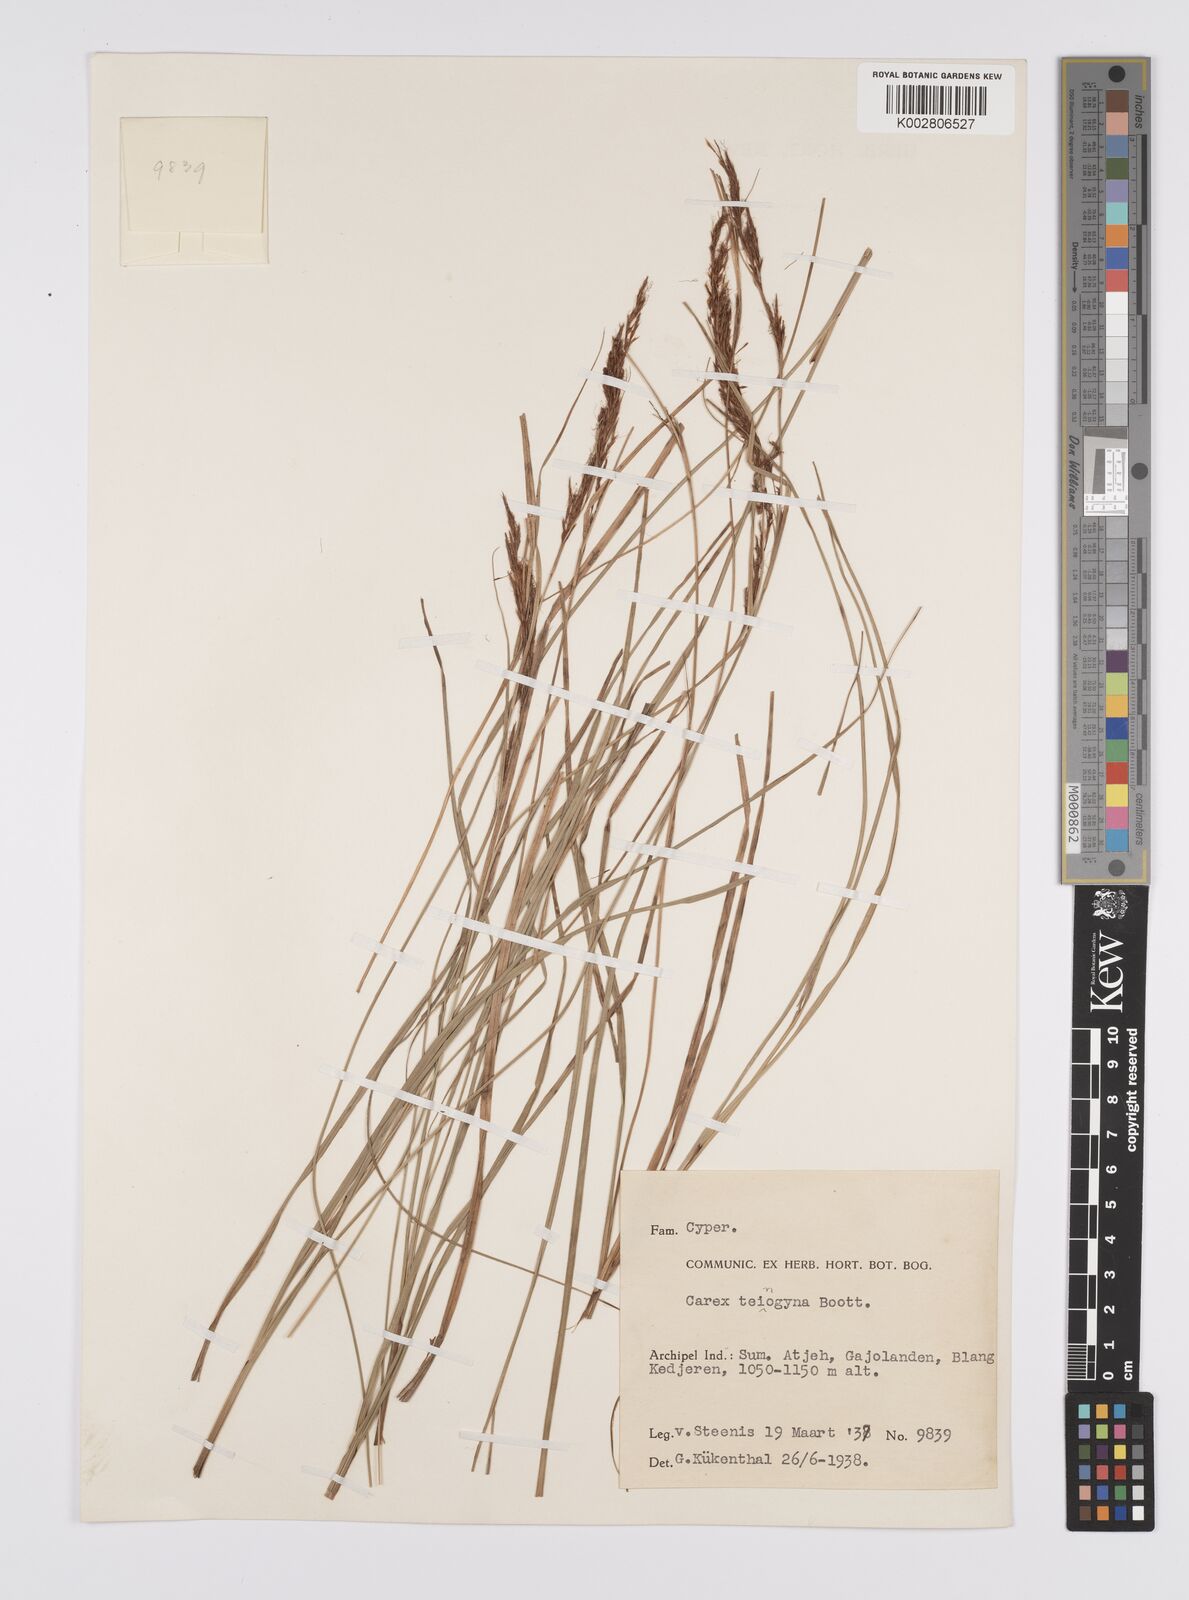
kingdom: Plantae
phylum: Tracheophyta
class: Liliopsida
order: Poales
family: Cyperaceae
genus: Carex
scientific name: Carex teinogyna
